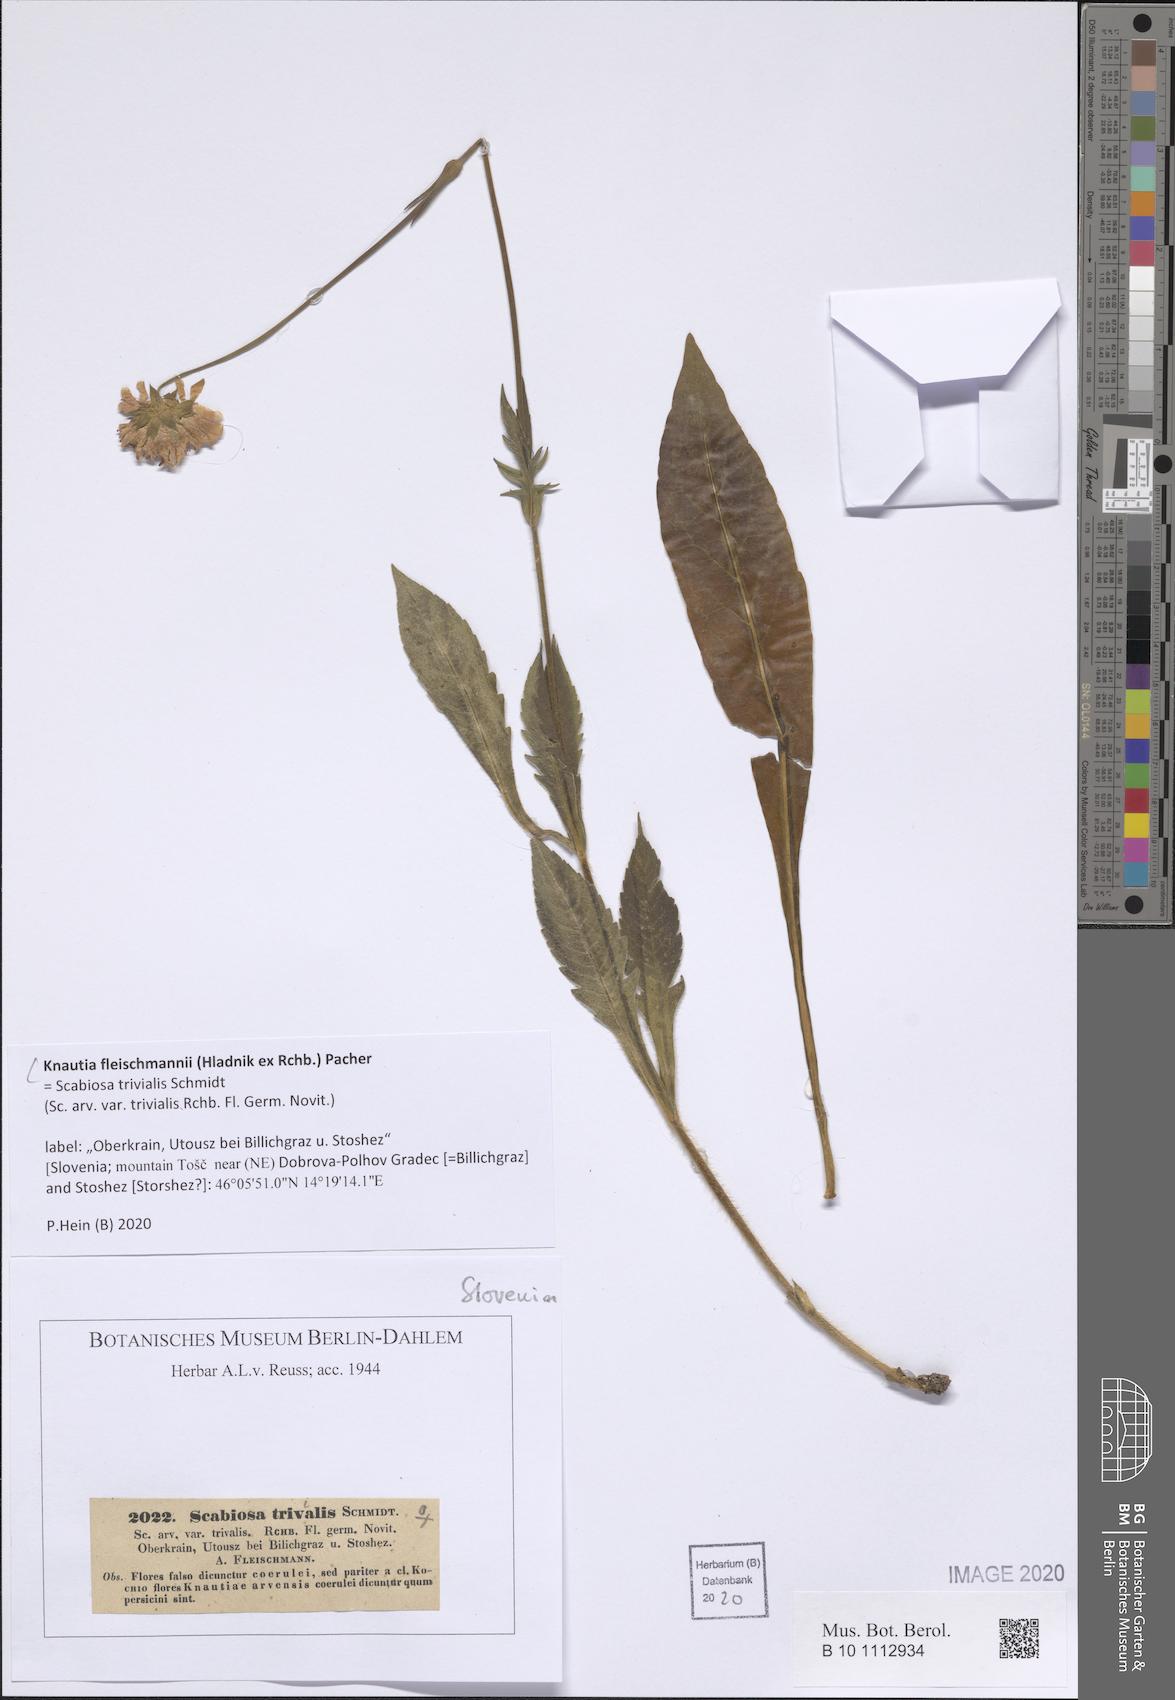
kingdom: Plantae
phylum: Tracheophyta
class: Magnoliopsida
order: Dipsacales
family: Caprifoliaceae
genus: Knautia
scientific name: Knautia fleischmannii
